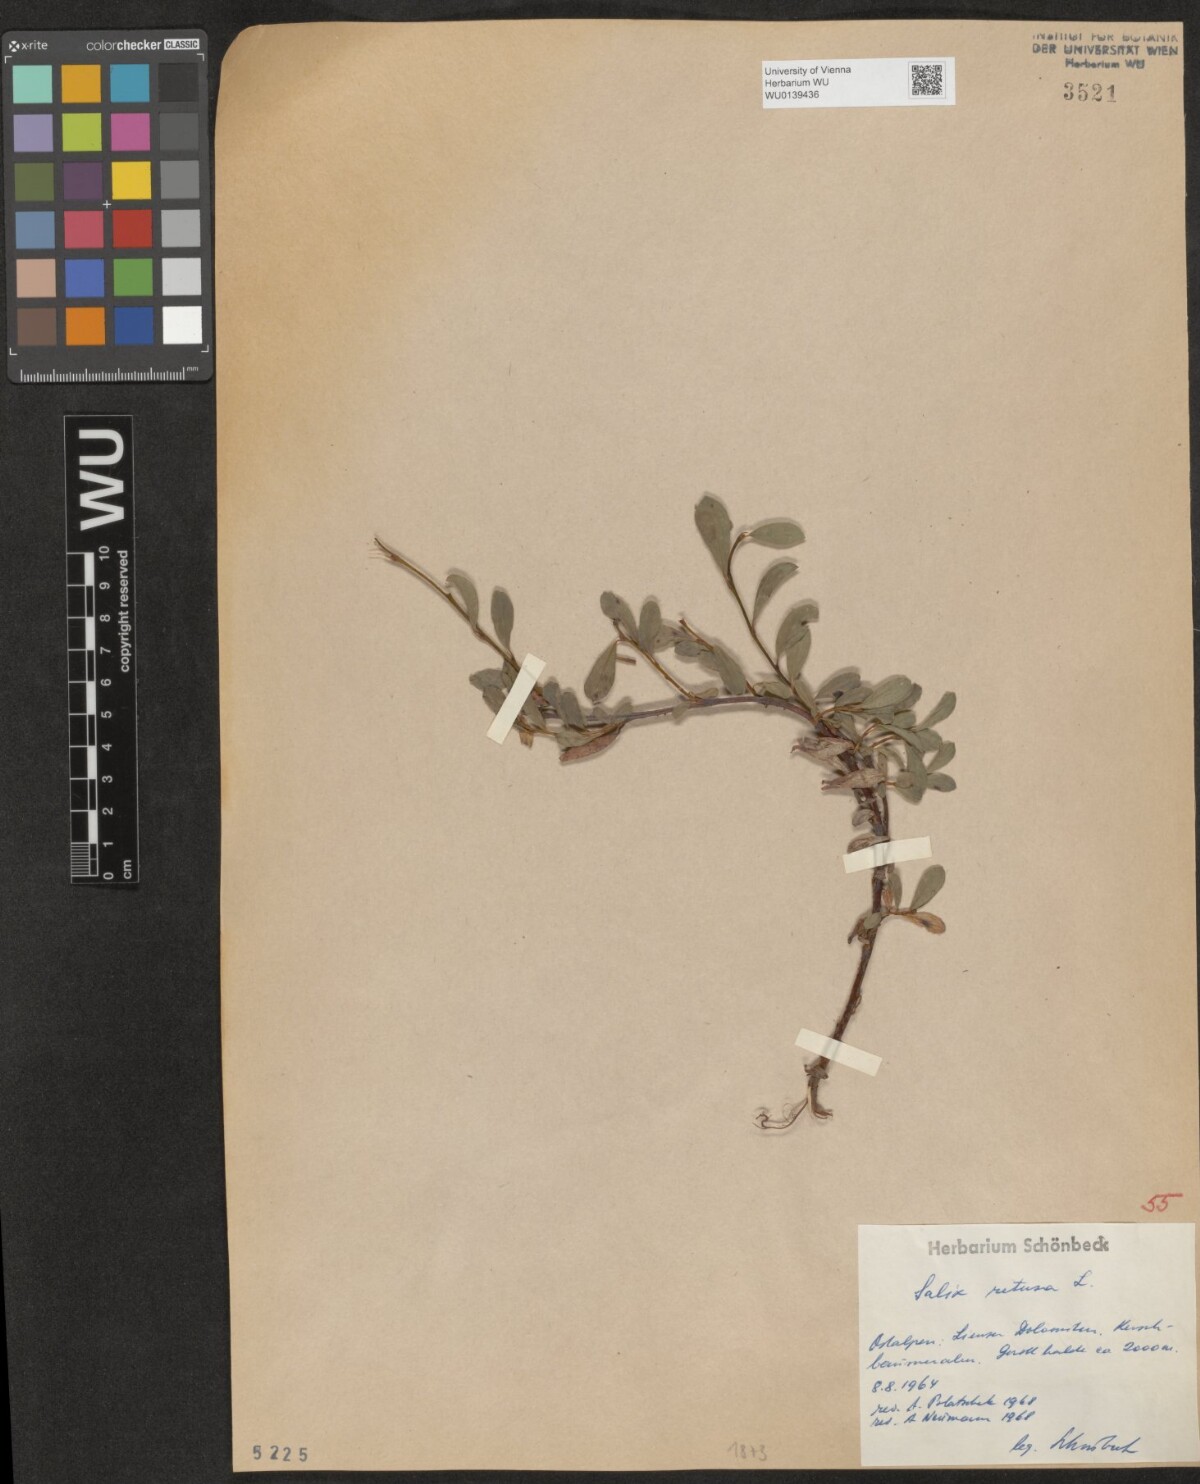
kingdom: Plantae
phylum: Tracheophyta
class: Magnoliopsida
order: Malpighiales
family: Salicaceae
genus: Salix
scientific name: Salix retusa
